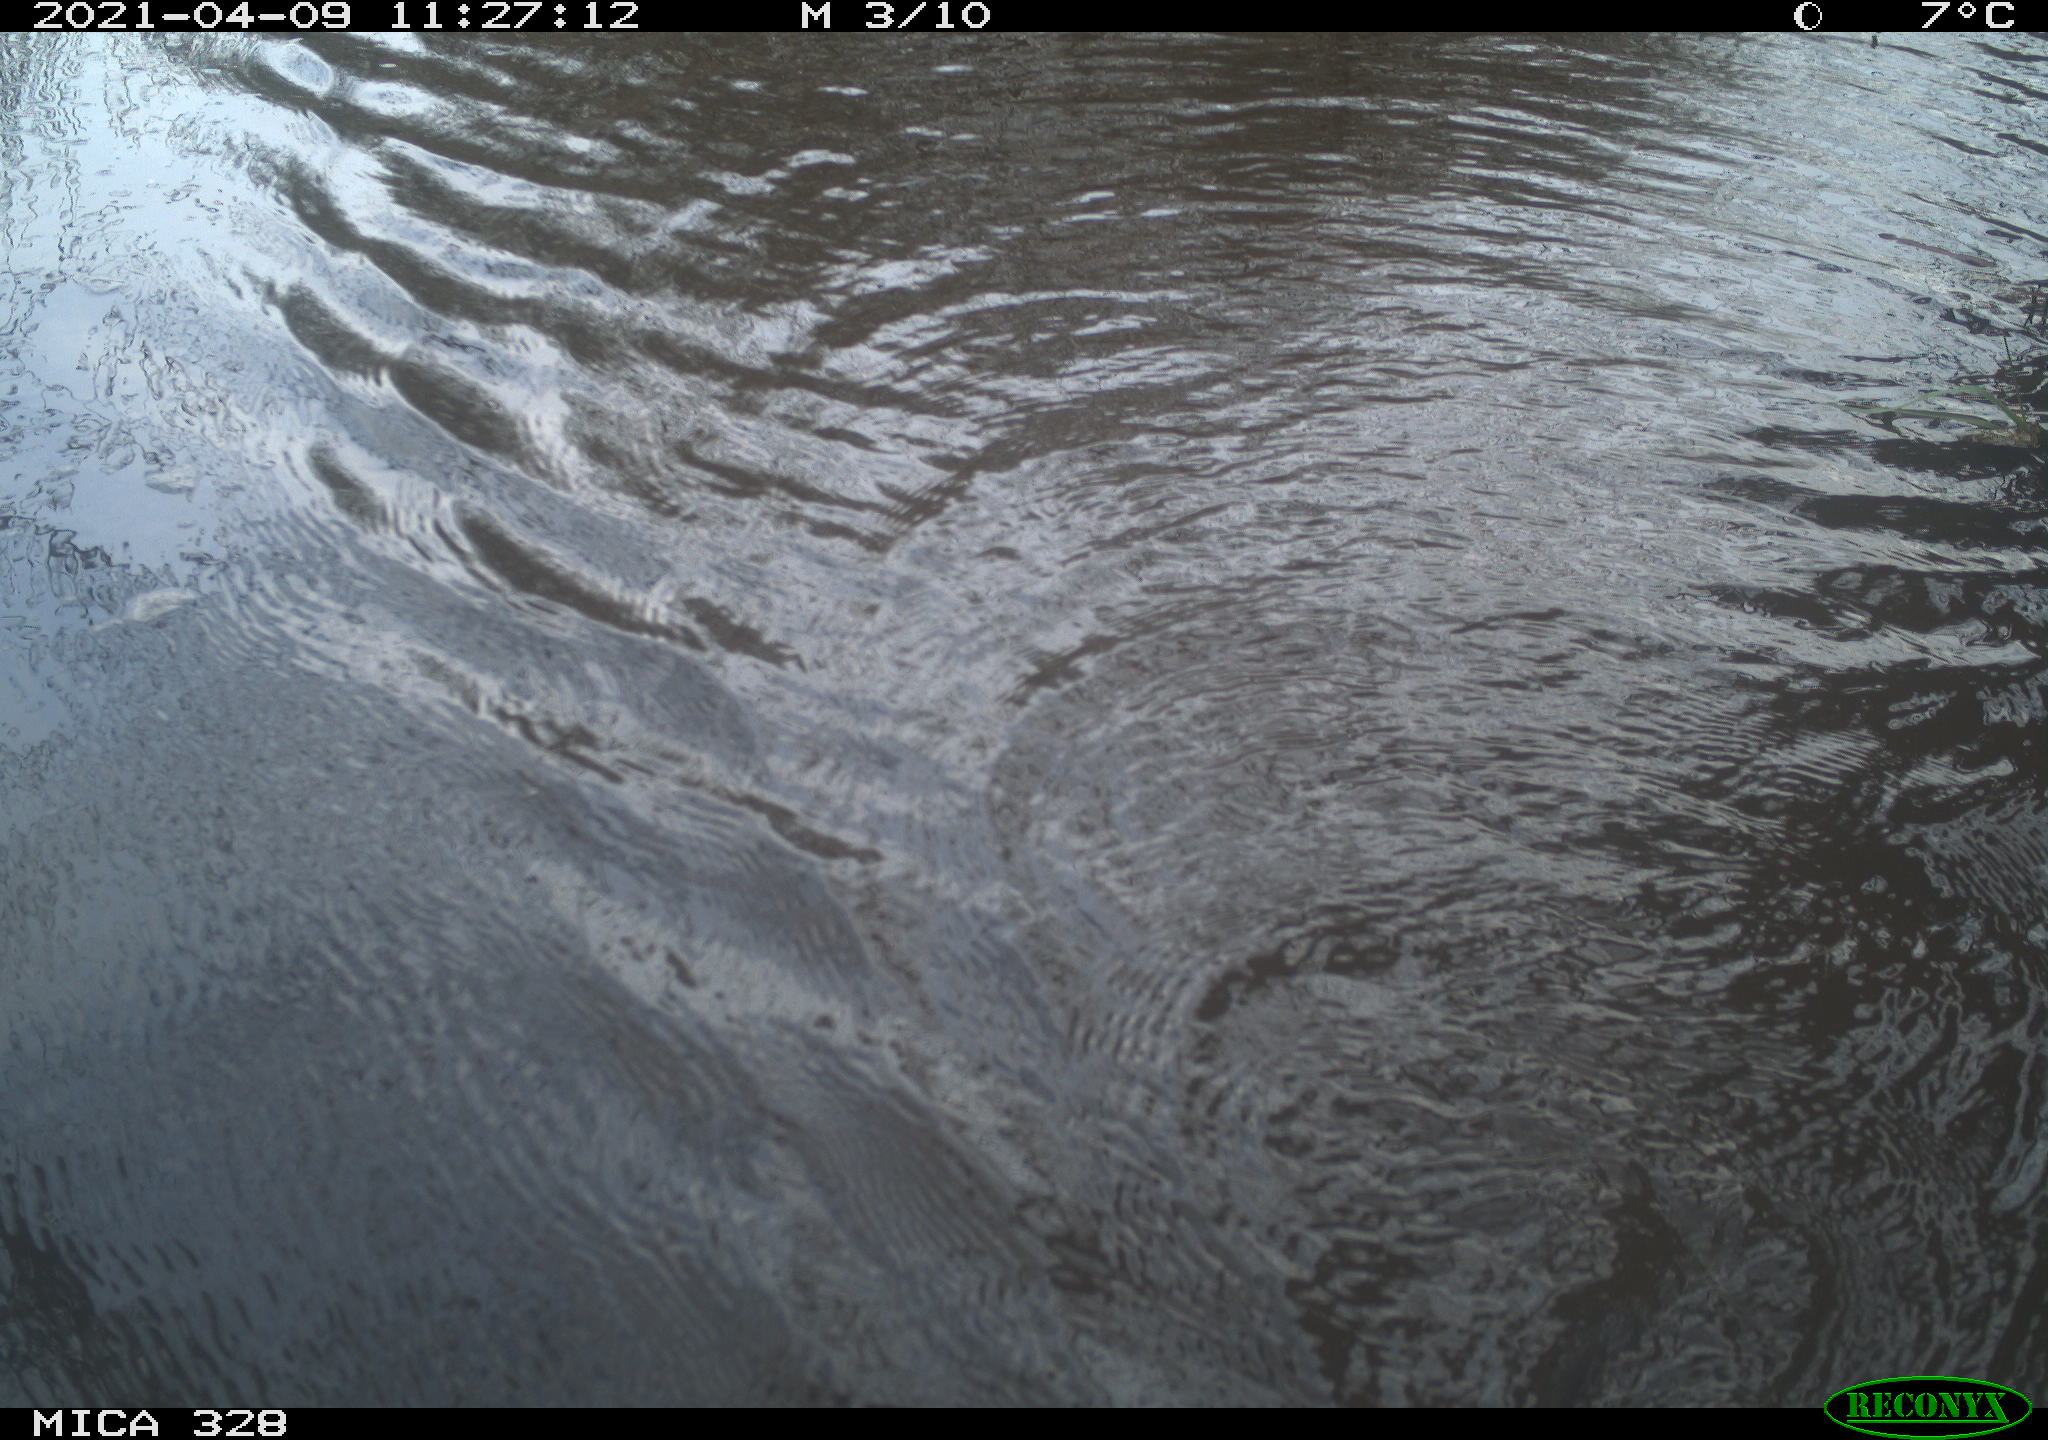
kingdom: Animalia
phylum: Chordata
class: Mammalia
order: Rodentia
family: Cricetidae
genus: Ondatra
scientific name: Ondatra zibethicus
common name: Muskrat
